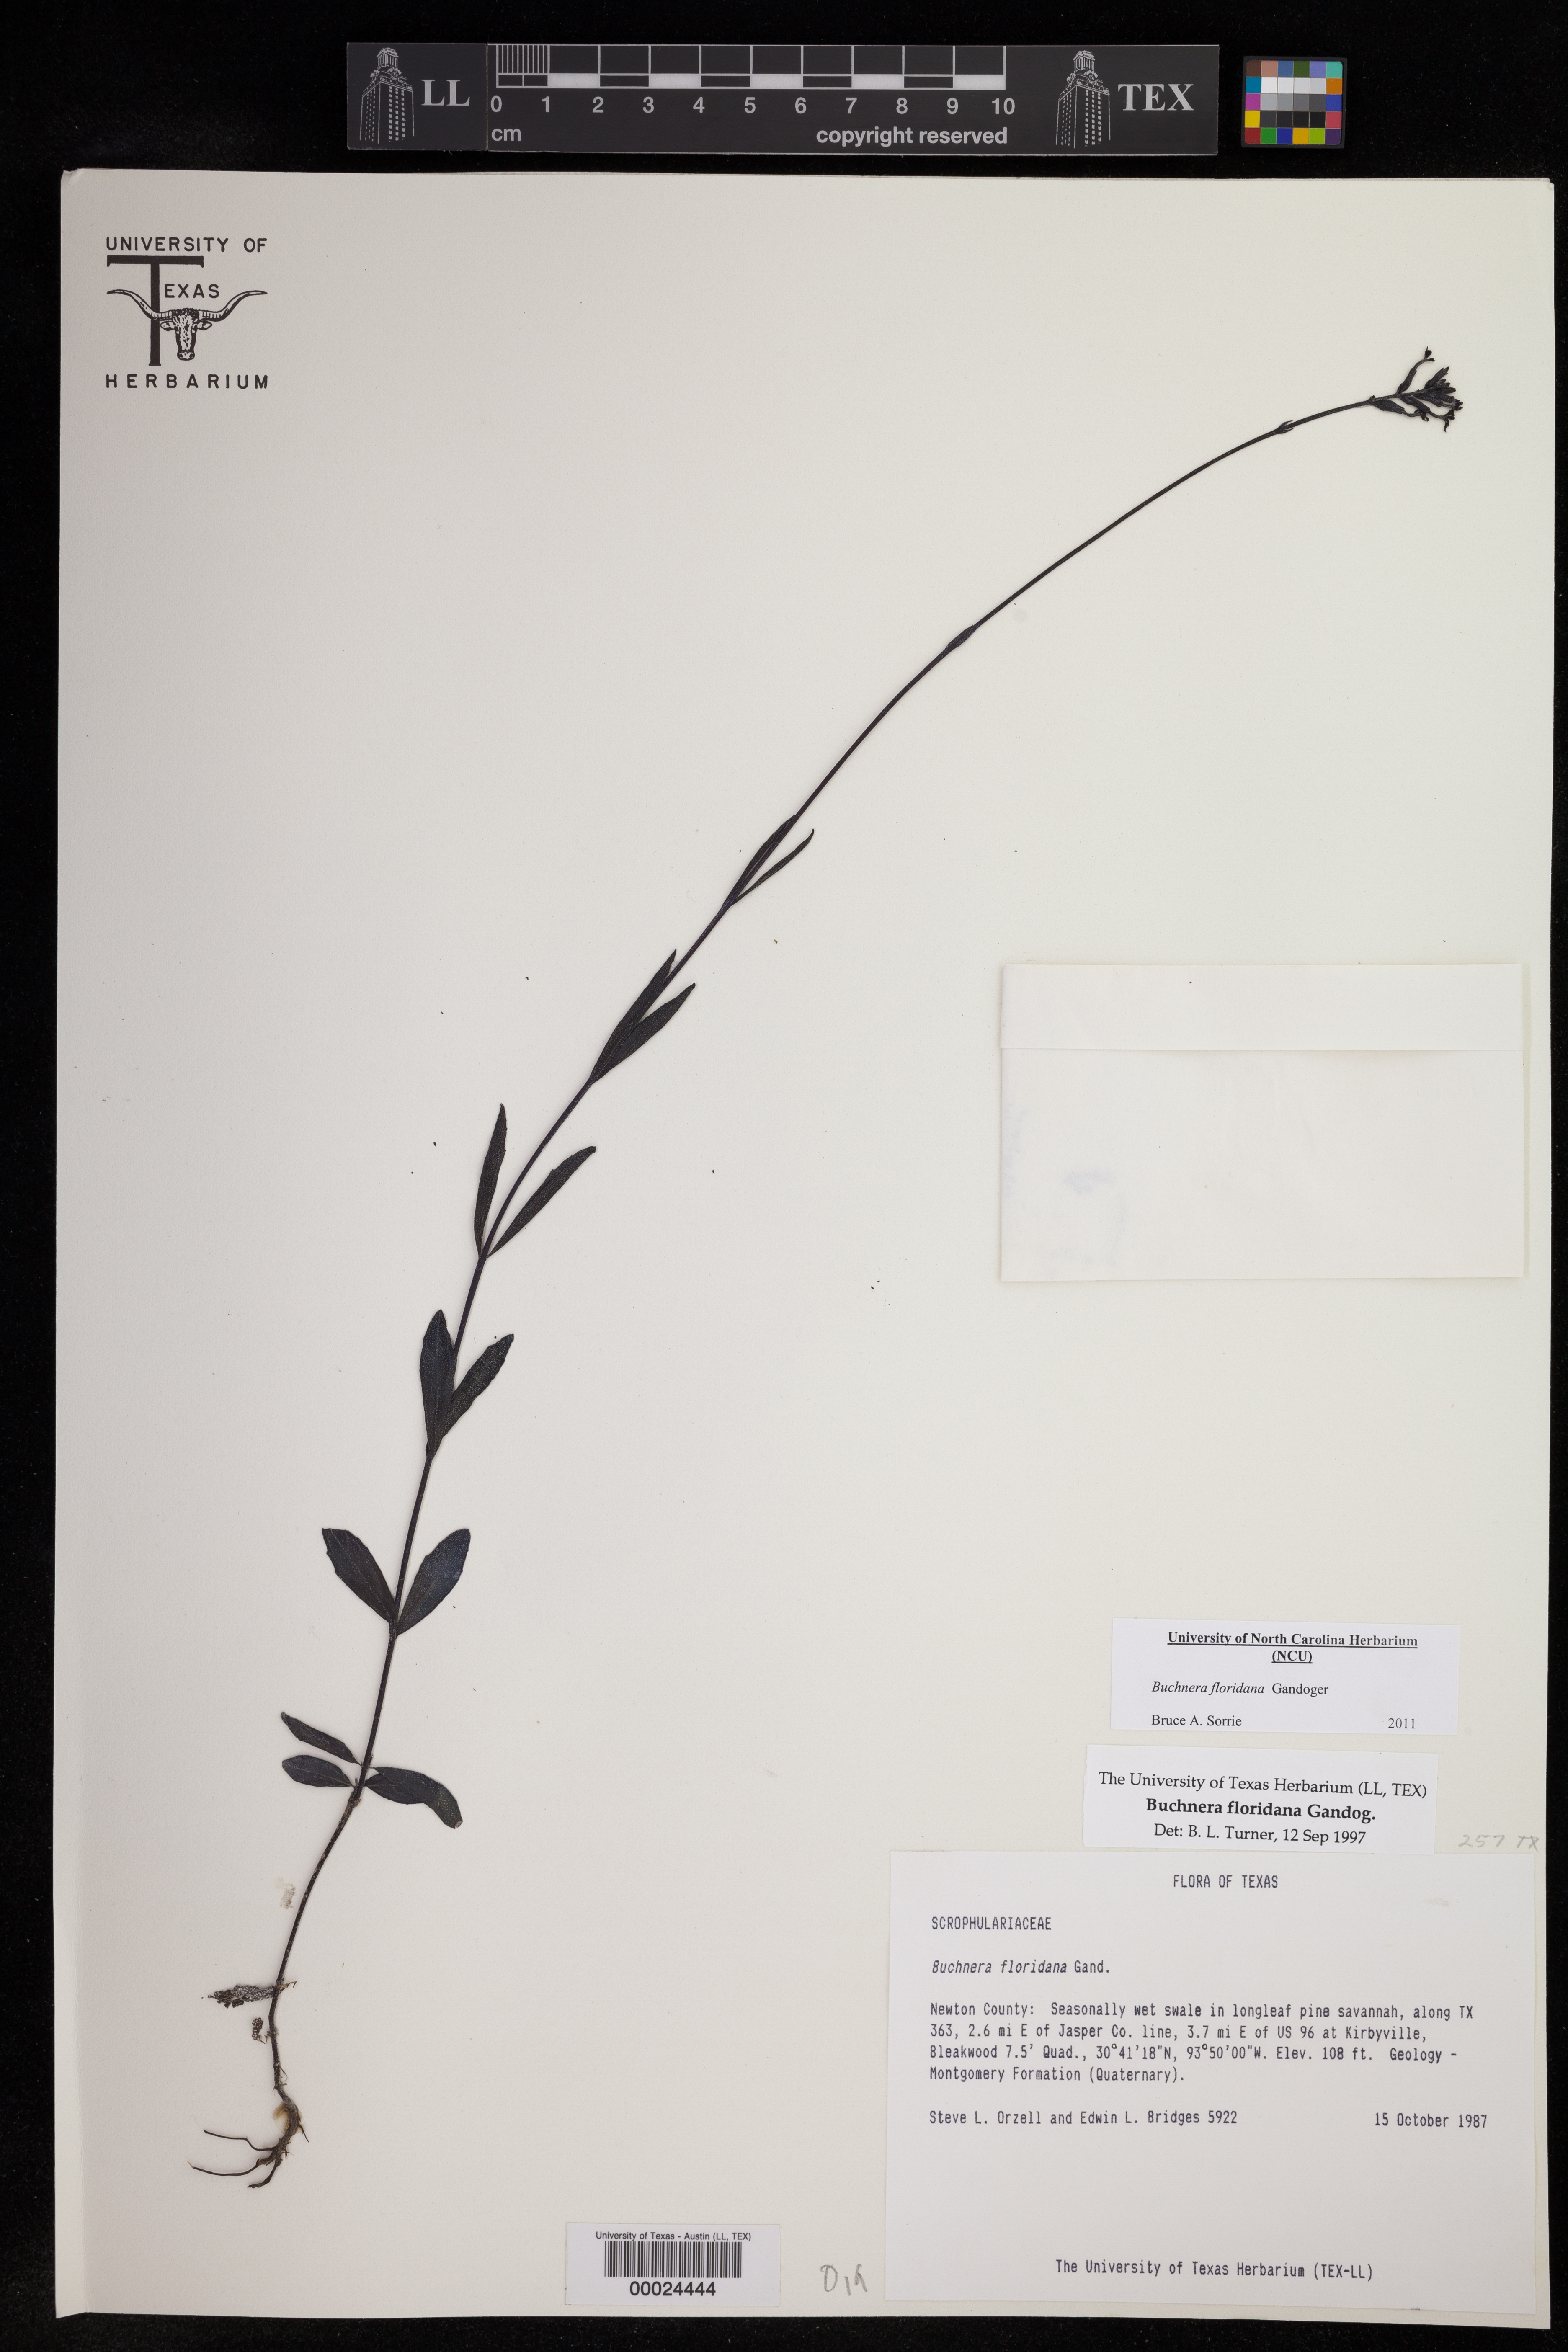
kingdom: Plantae
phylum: Tracheophyta
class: Magnoliopsida
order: Lamiales
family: Orobanchaceae
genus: Buchnera
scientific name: Buchnera floridana
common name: Florida bluehearts
